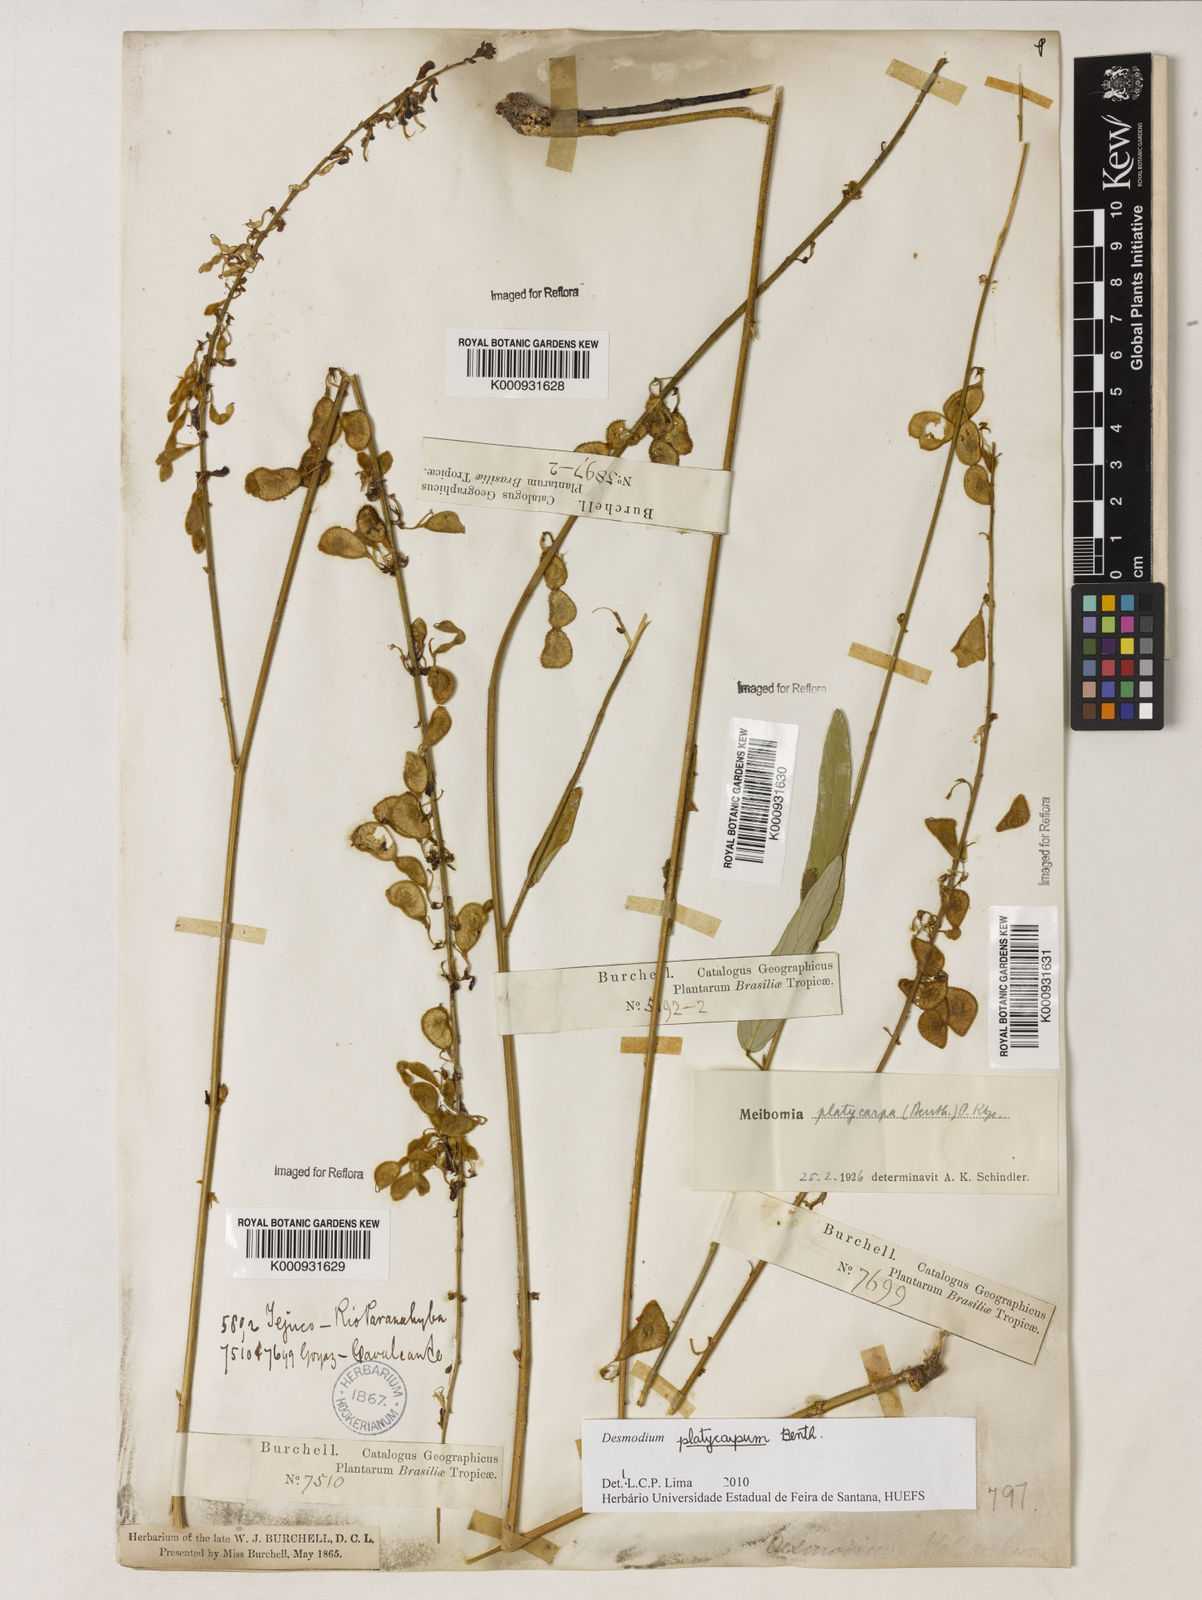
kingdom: Plantae
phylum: Tracheophyta
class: Magnoliopsida
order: Fabales
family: Fabaceae
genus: Desmodium
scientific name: Desmodium platycarpum
